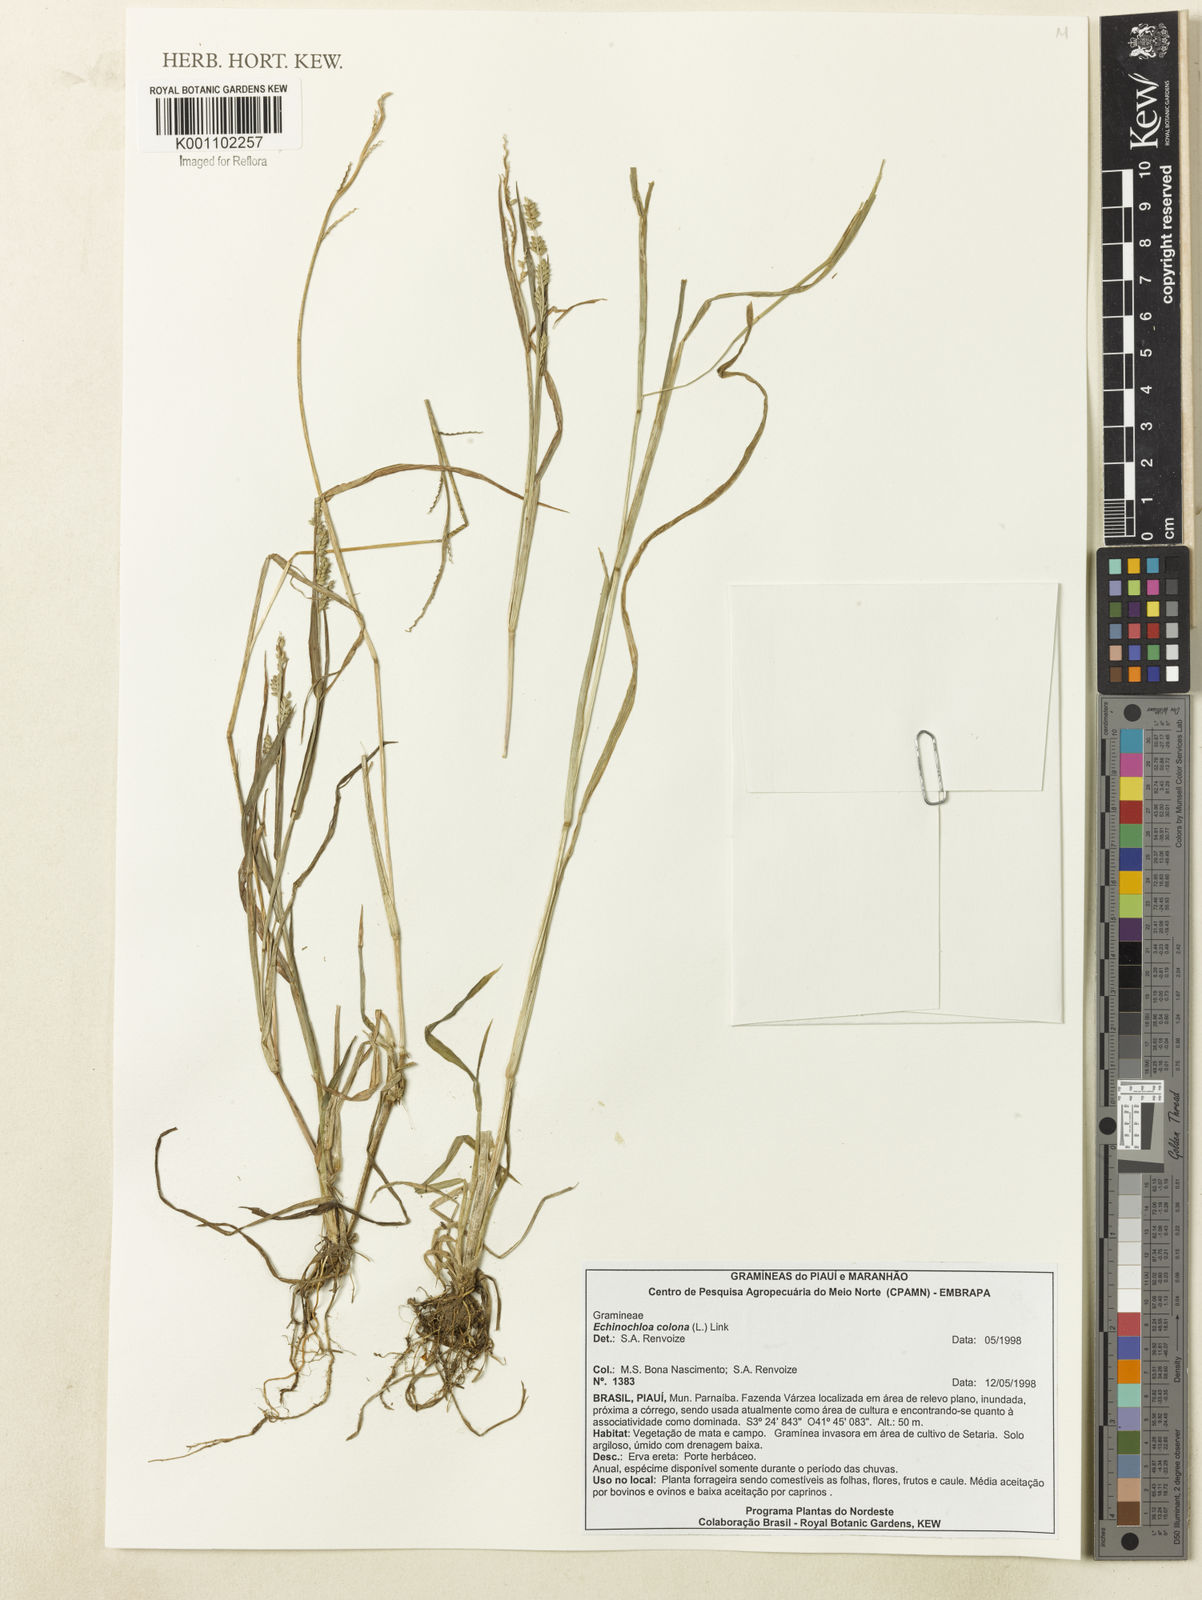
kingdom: Plantae
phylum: Tracheophyta
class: Liliopsida
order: Poales
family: Poaceae
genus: Echinochloa
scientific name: Echinochloa colonum
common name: Jungle rice
